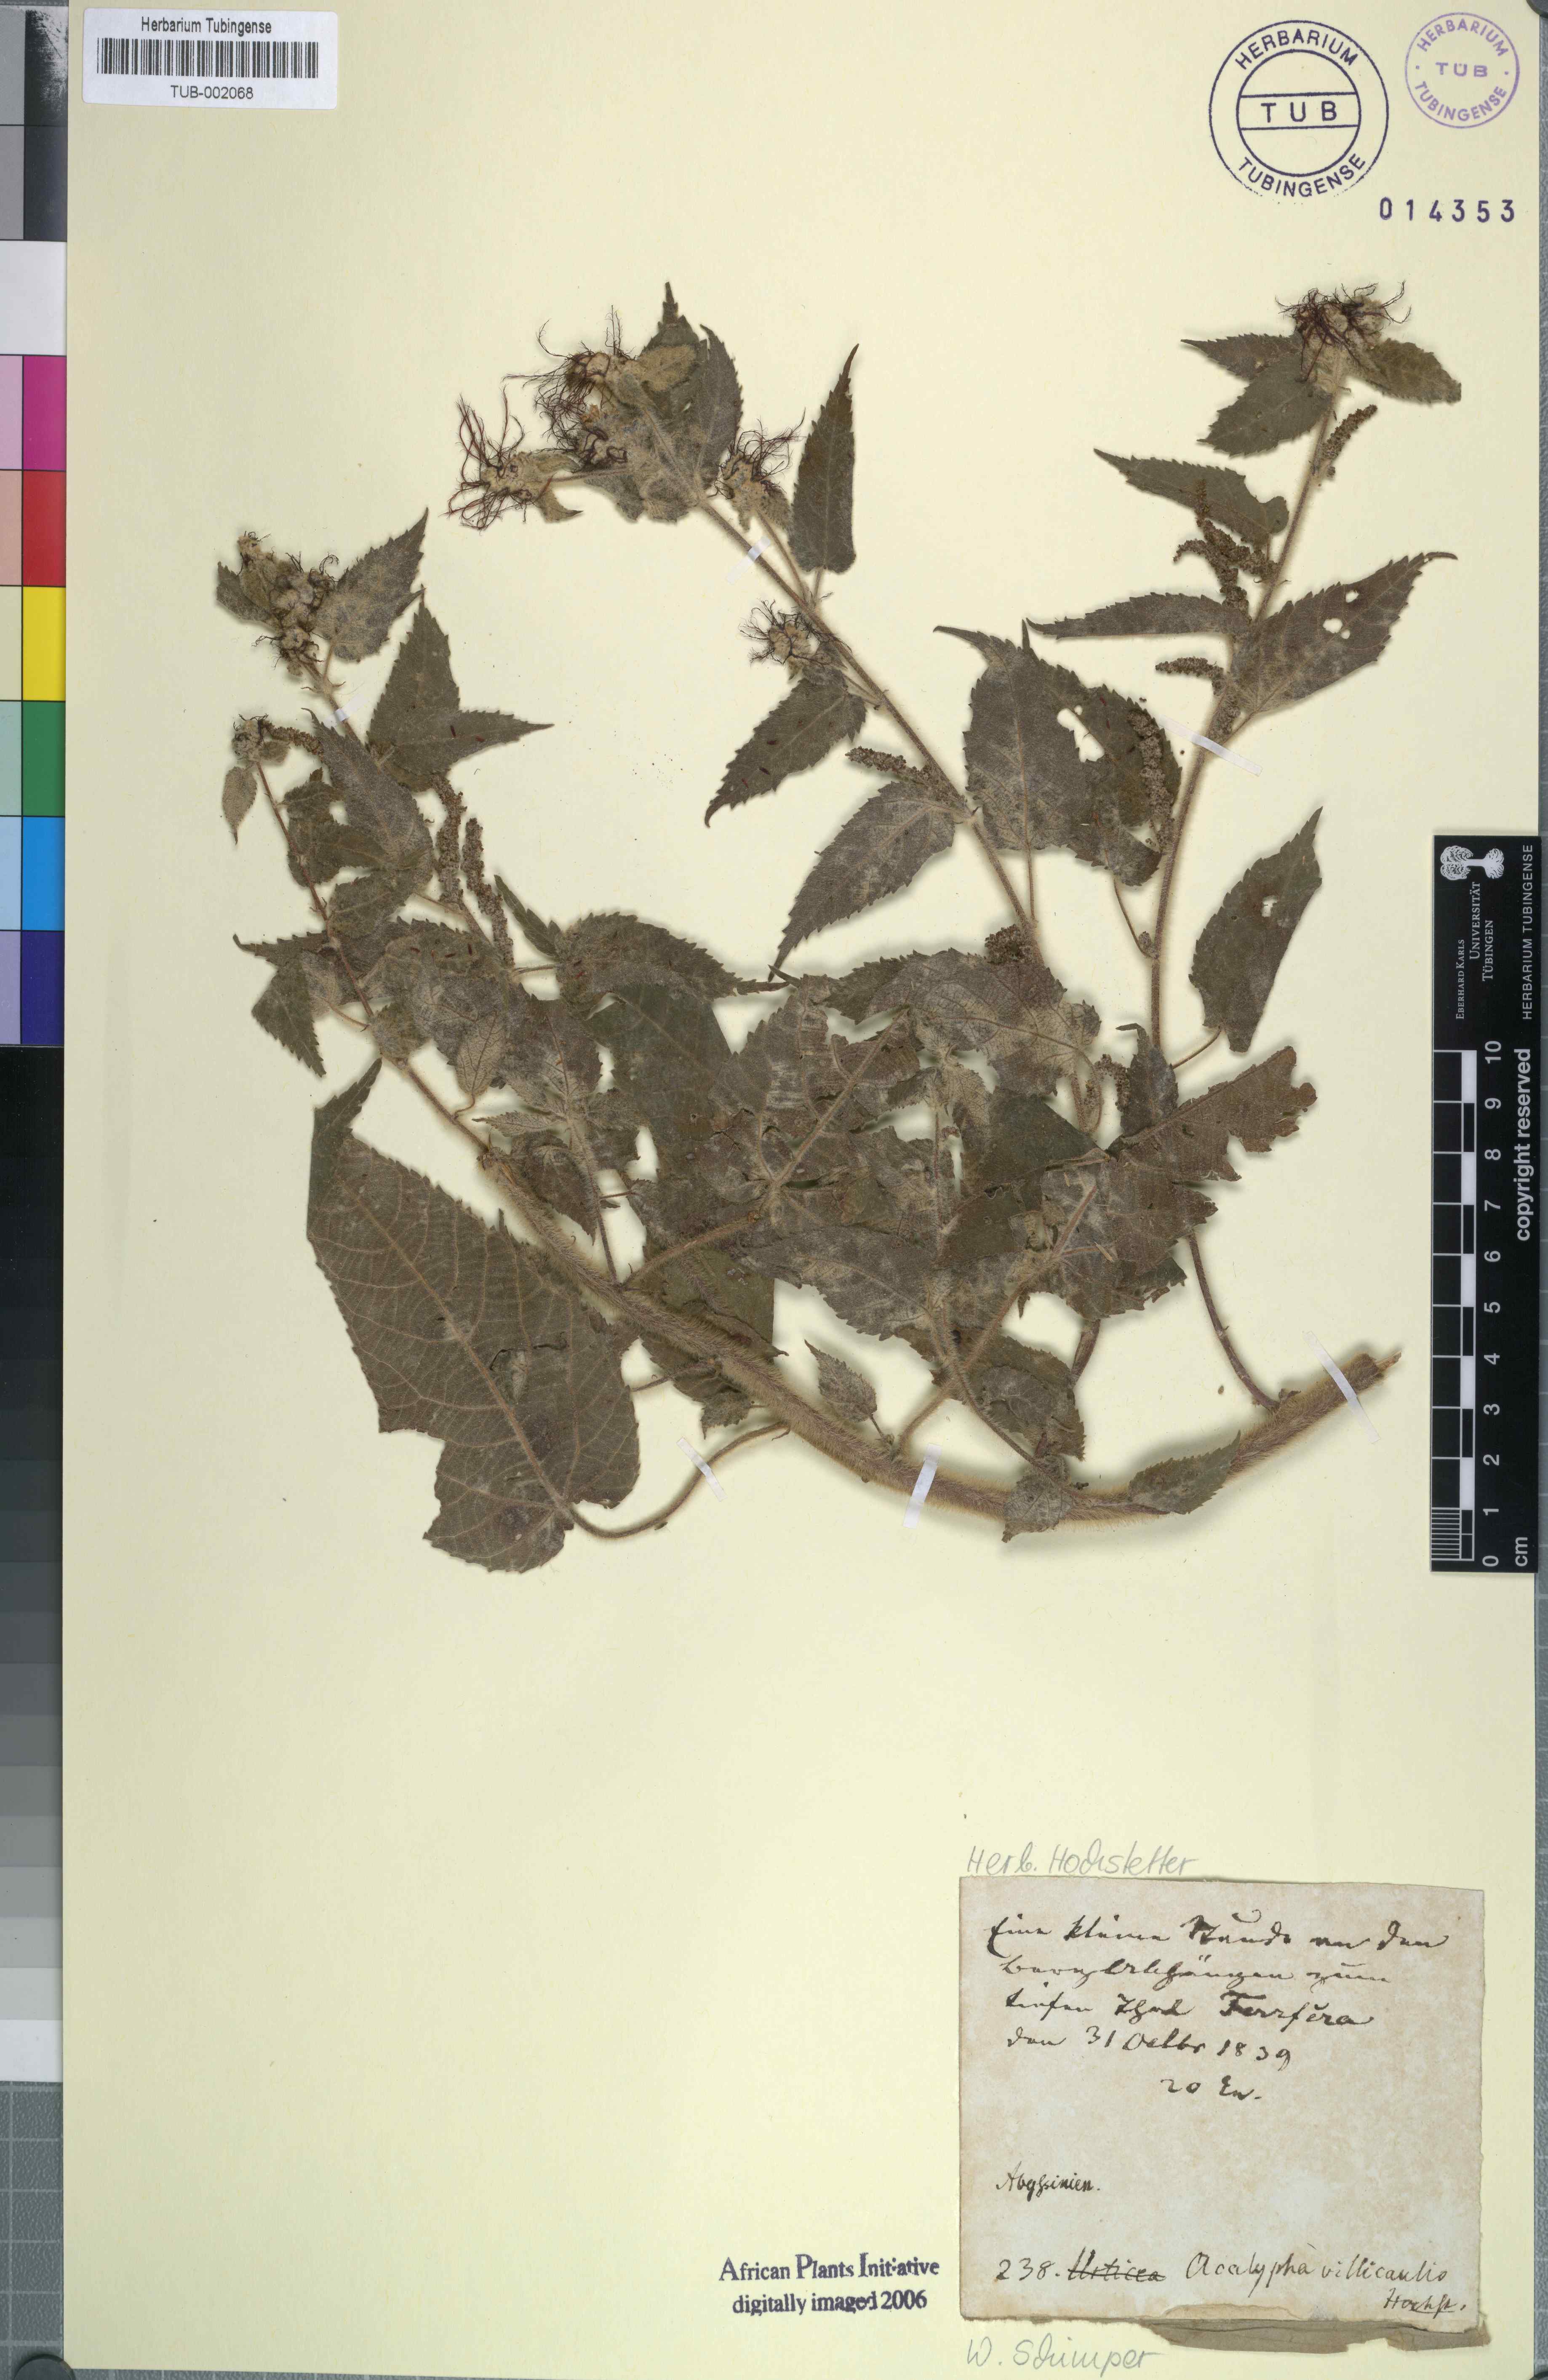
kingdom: Plantae
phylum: Tracheophyta
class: Magnoliopsida
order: Malpighiales
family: Euphorbiaceae
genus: Acalypha
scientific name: Acalypha petiolaris
